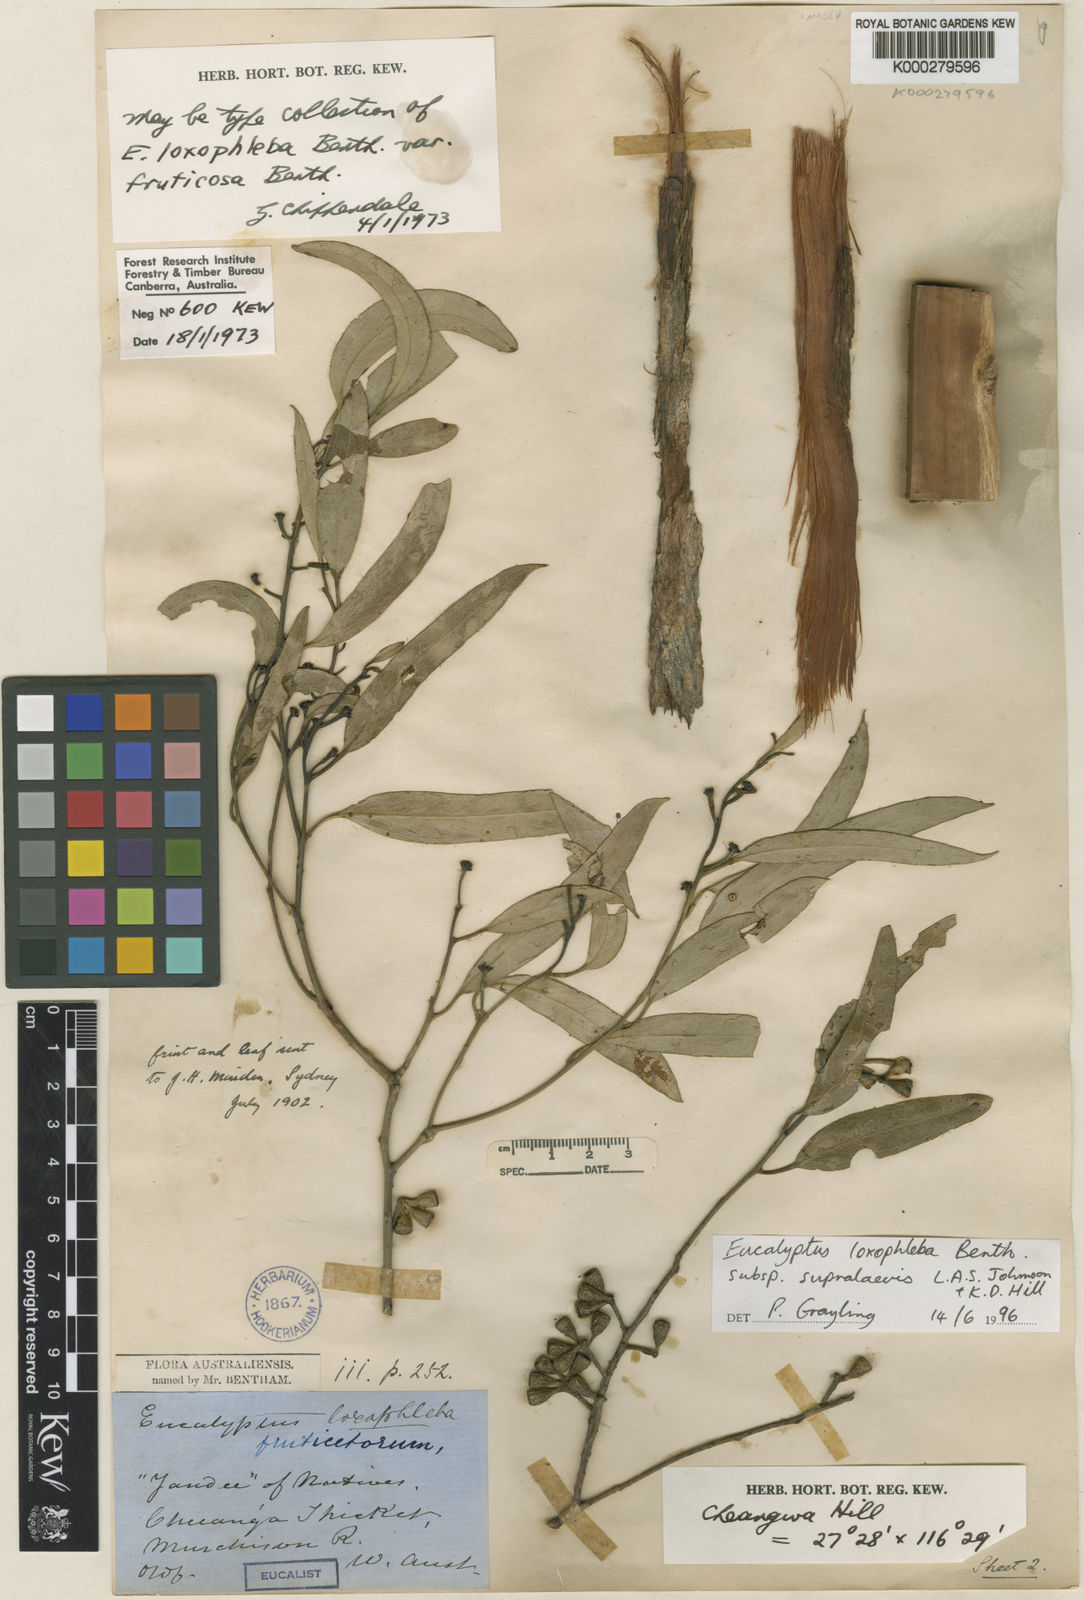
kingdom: Plantae
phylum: Tracheophyta
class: Magnoliopsida
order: Myrtales
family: Myrtaceae
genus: Eucalyptus
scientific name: Eucalyptus loxophleba
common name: York gum
